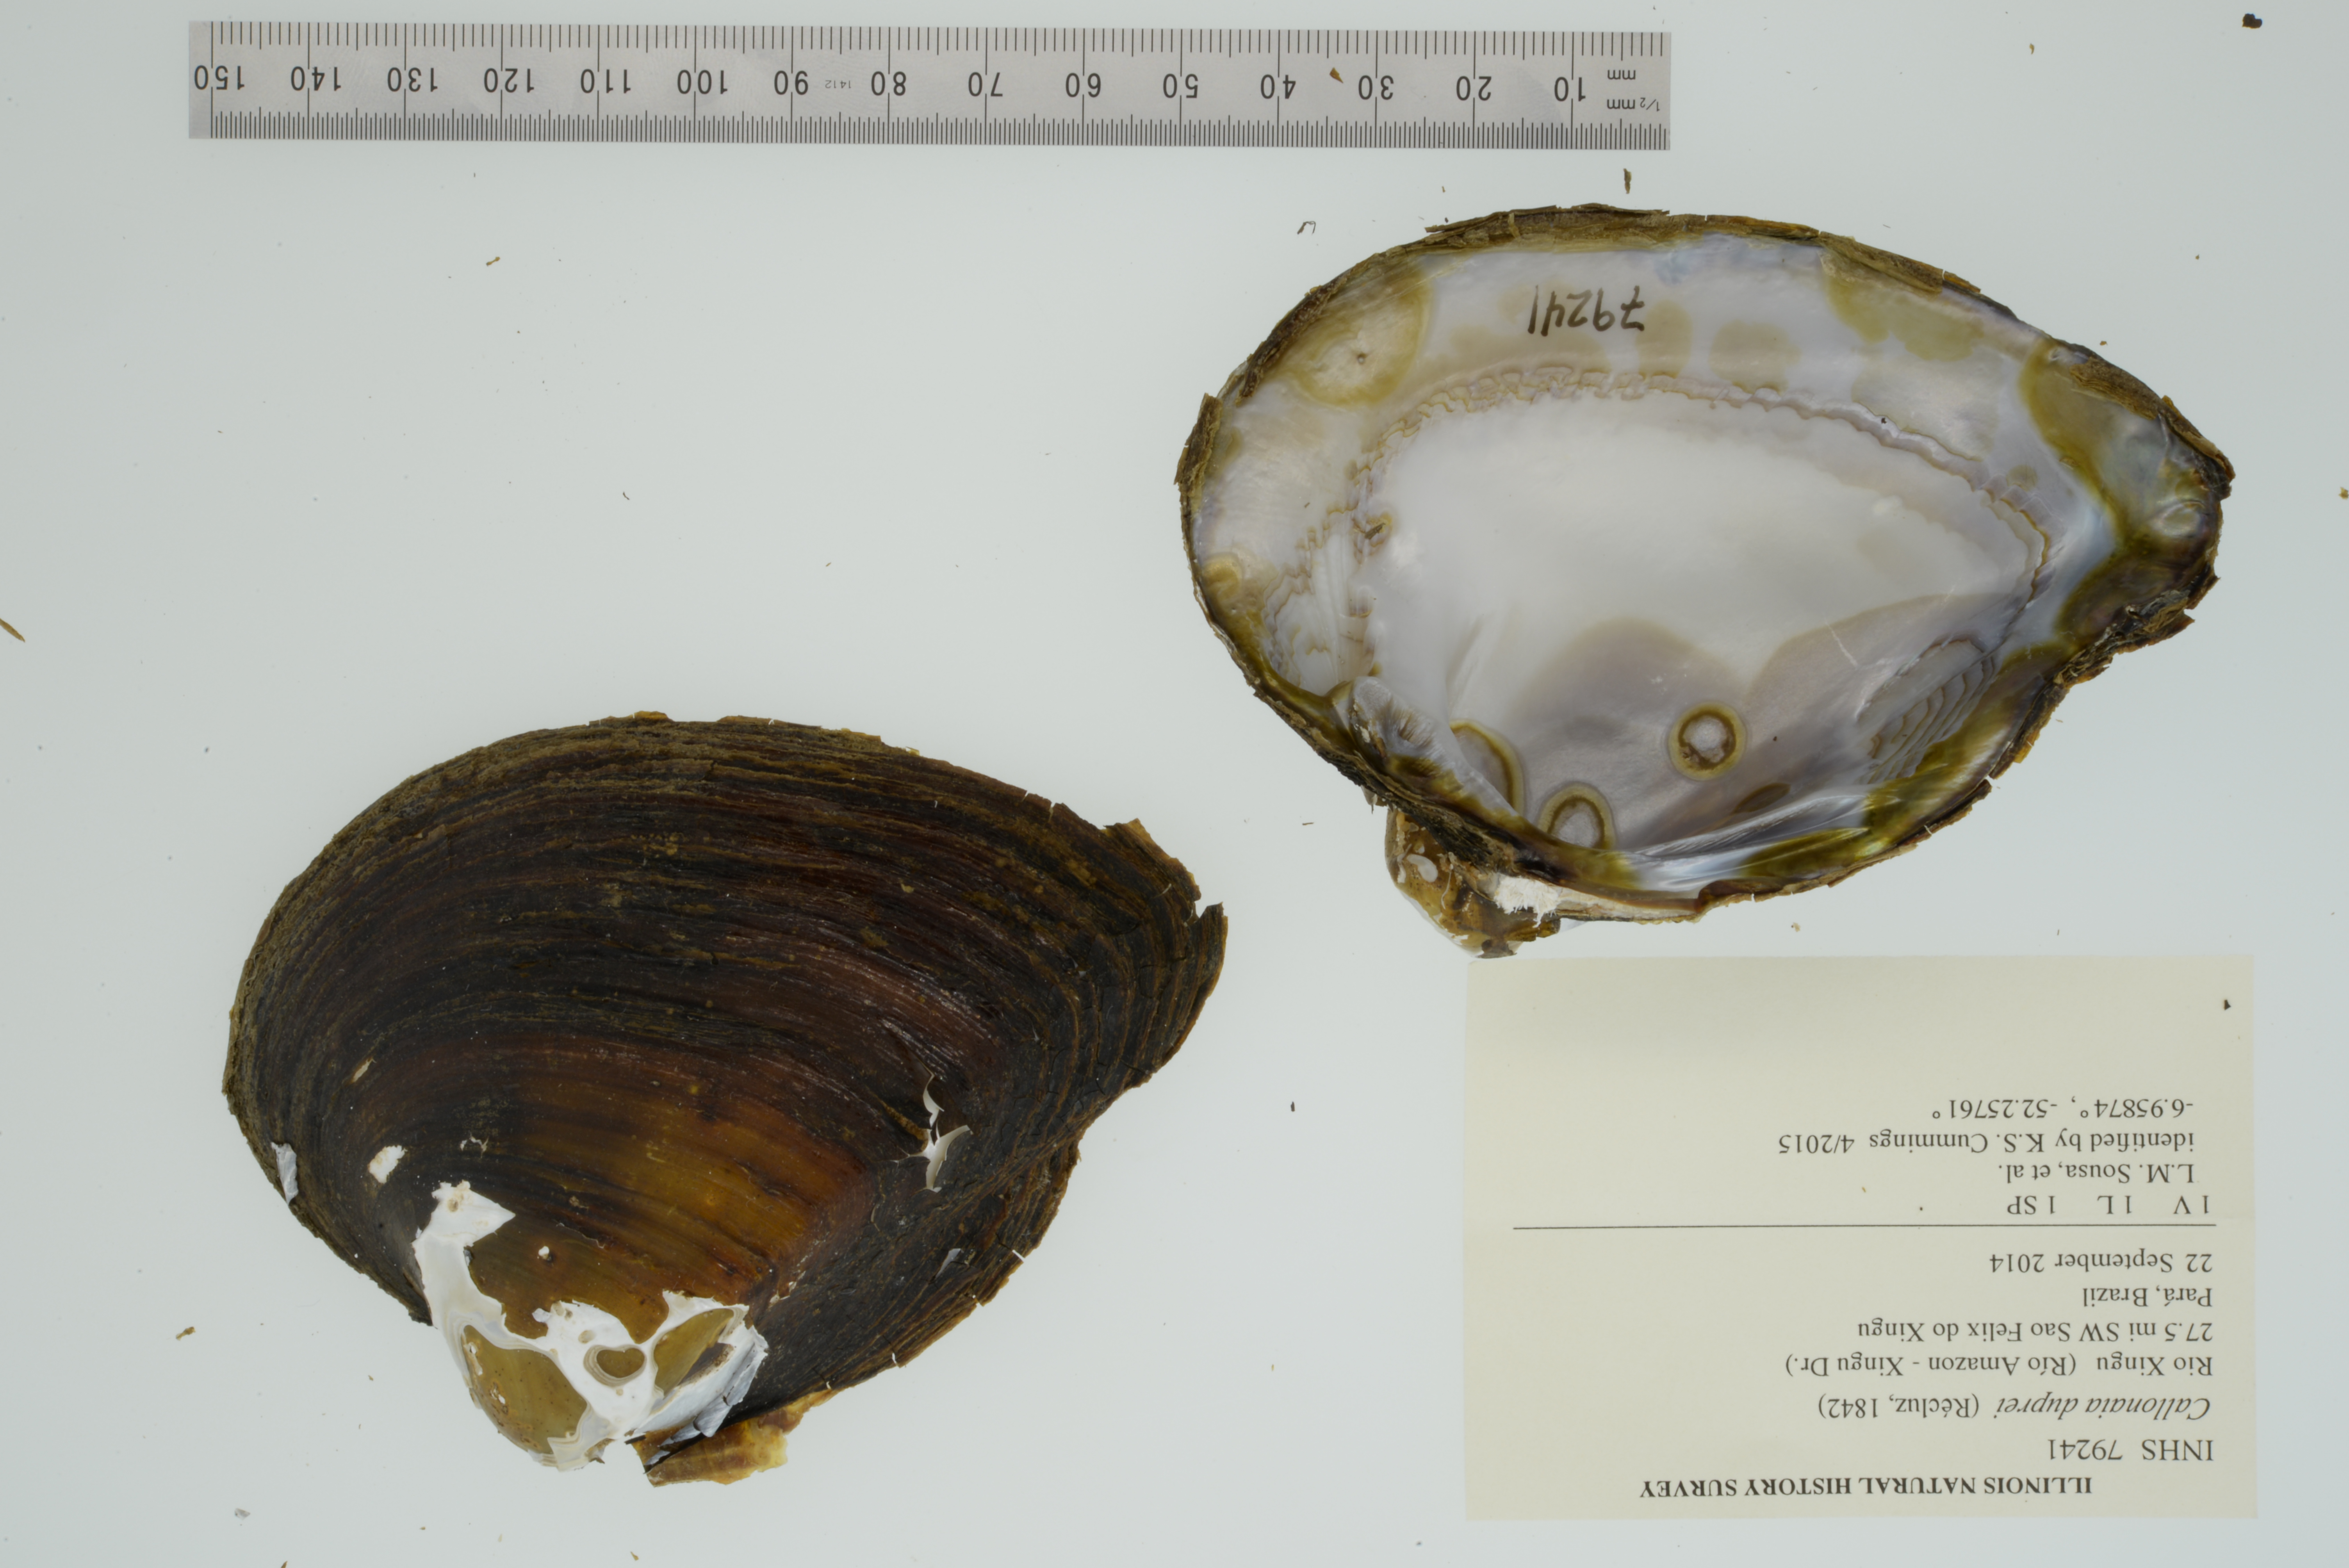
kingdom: Animalia
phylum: Mollusca
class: Bivalvia
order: Unionida
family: Hyriidae
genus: Callonaia
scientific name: Callonaia duprei
